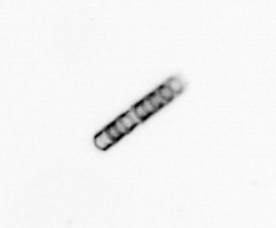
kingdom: Chromista
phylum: Ochrophyta
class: Bacillariophyceae
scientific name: Bacillariophyceae
